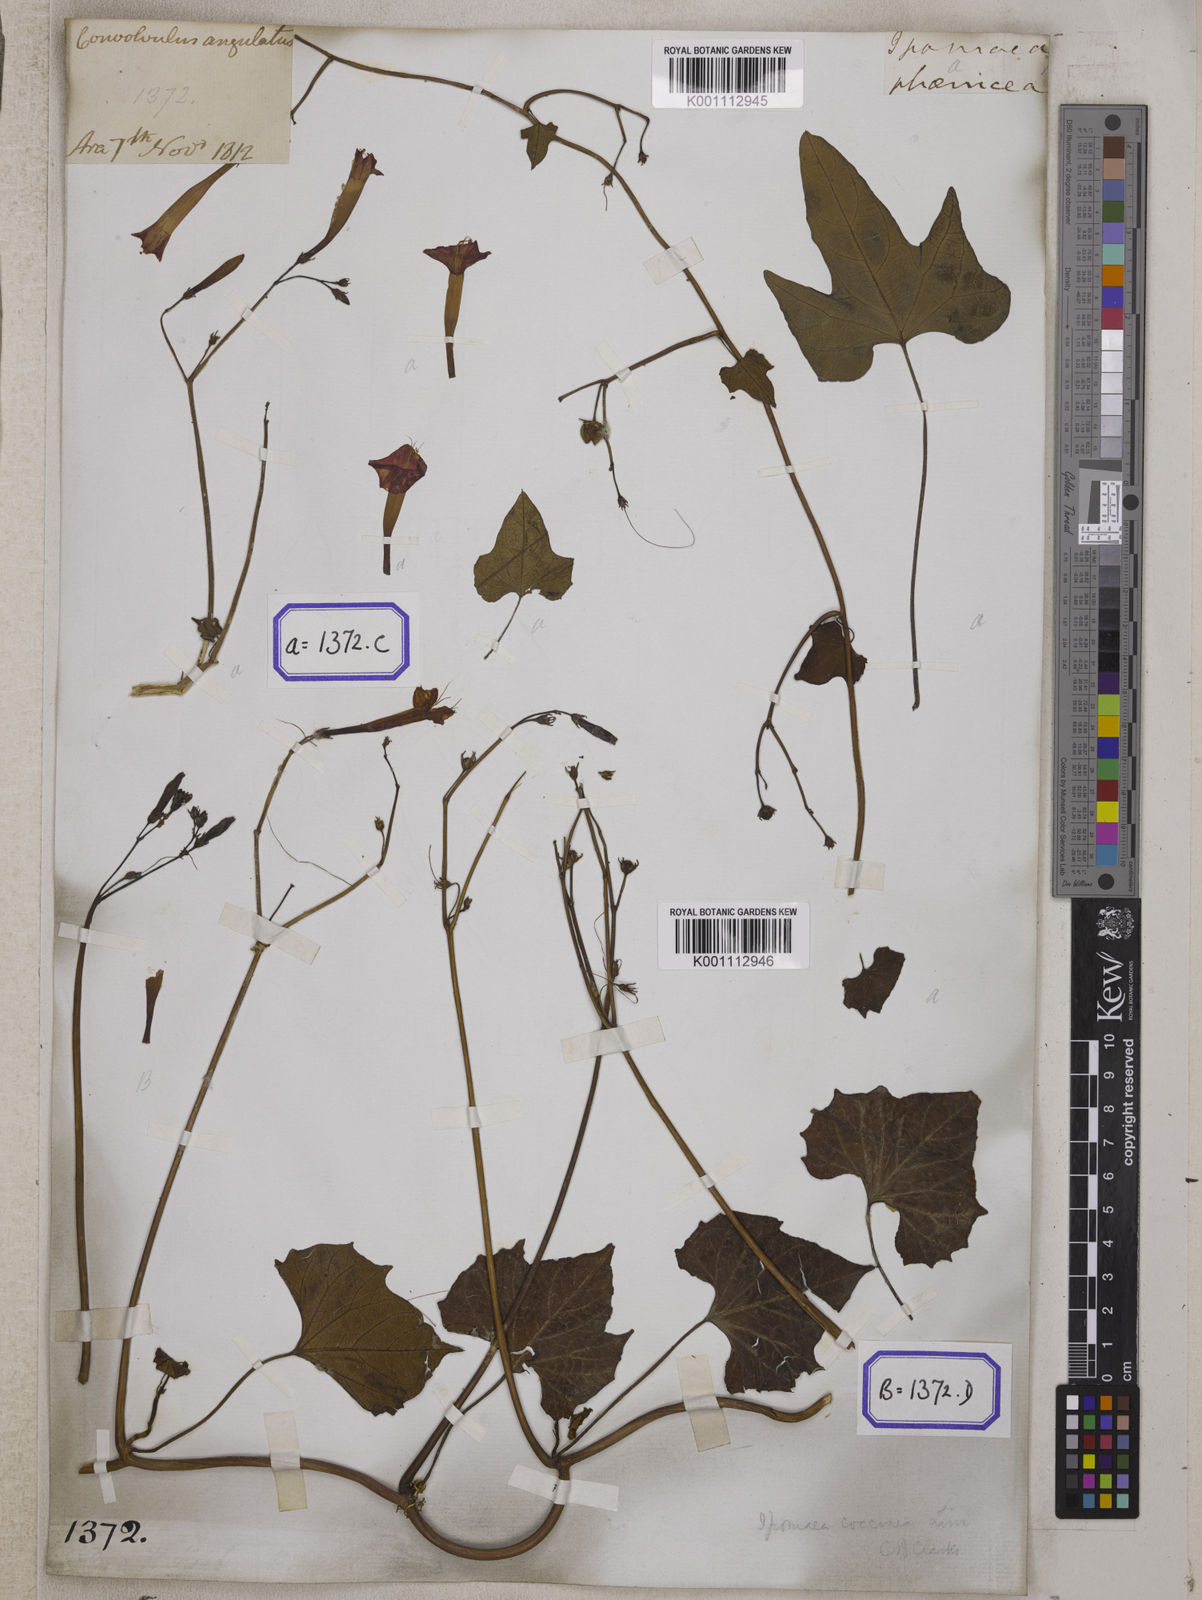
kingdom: Plantae
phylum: Tracheophyta
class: Magnoliopsida
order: Solanales
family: Convolvulaceae
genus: Convolvulus
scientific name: Convolvulus
